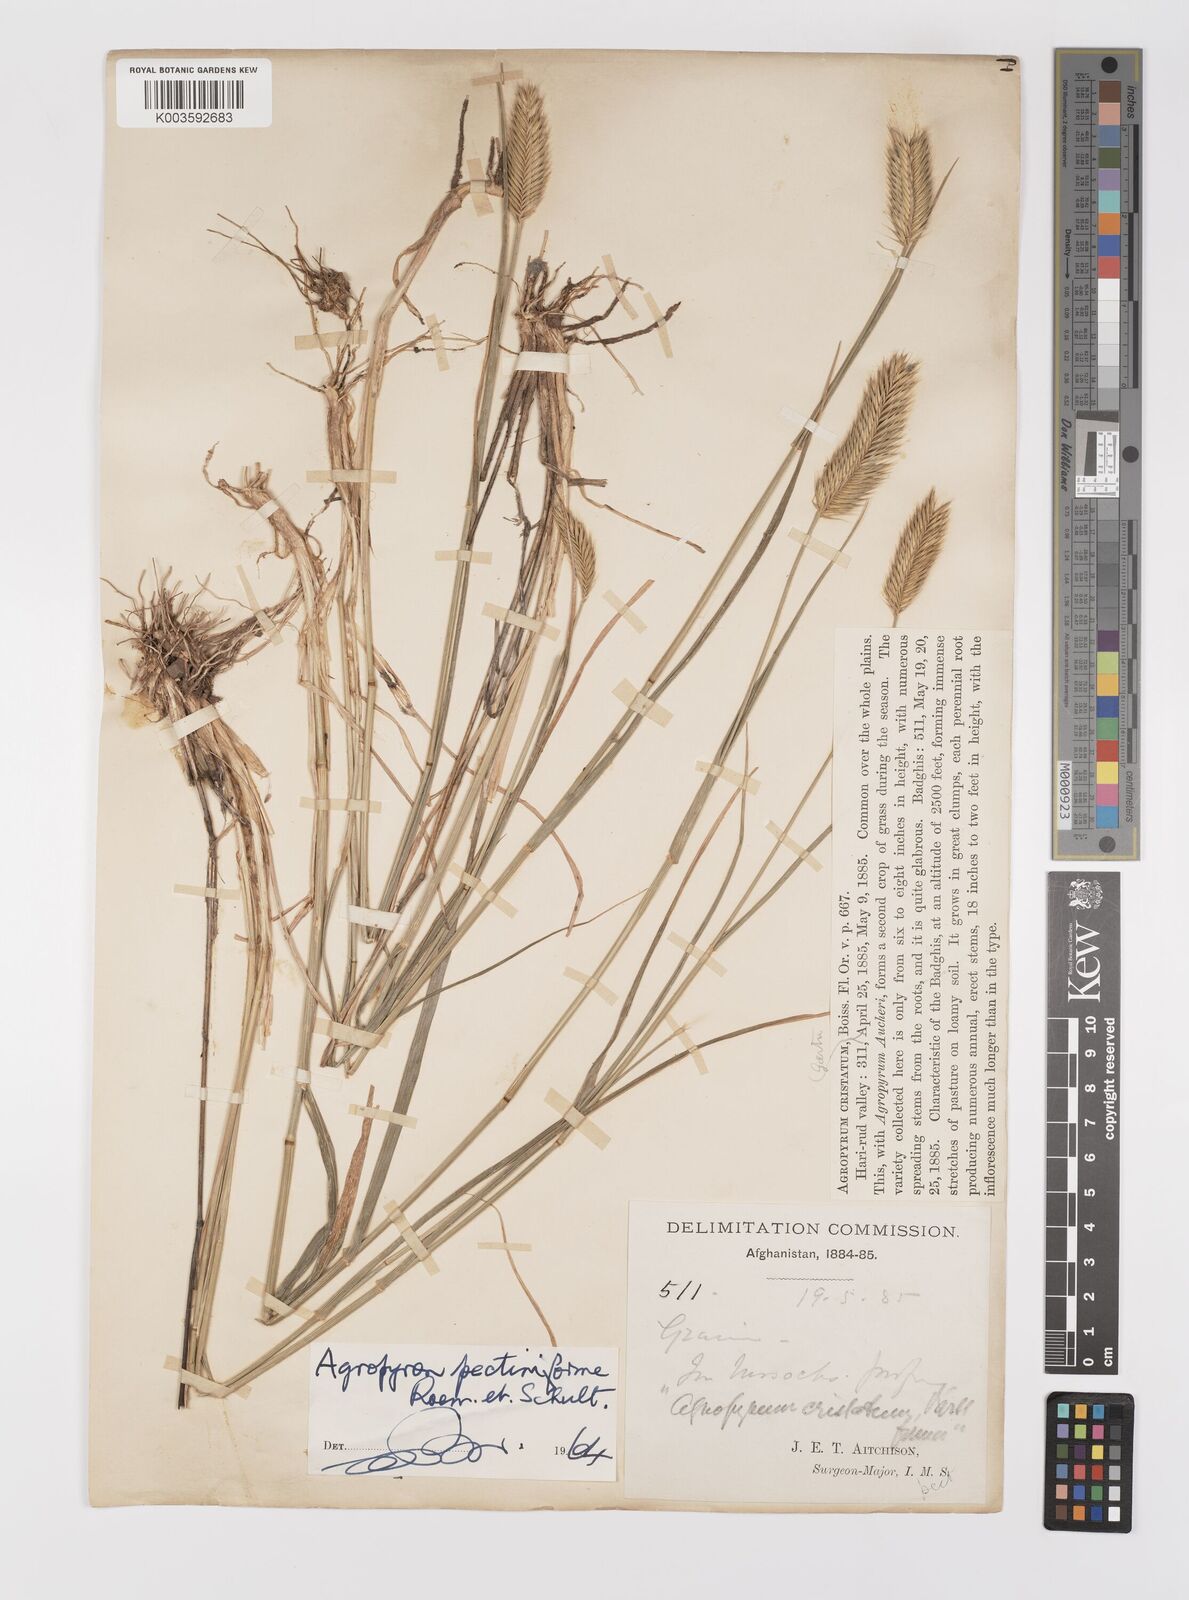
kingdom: Plantae
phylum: Tracheophyta
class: Liliopsida
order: Poales
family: Poaceae
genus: Agropyron
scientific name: Agropyron
